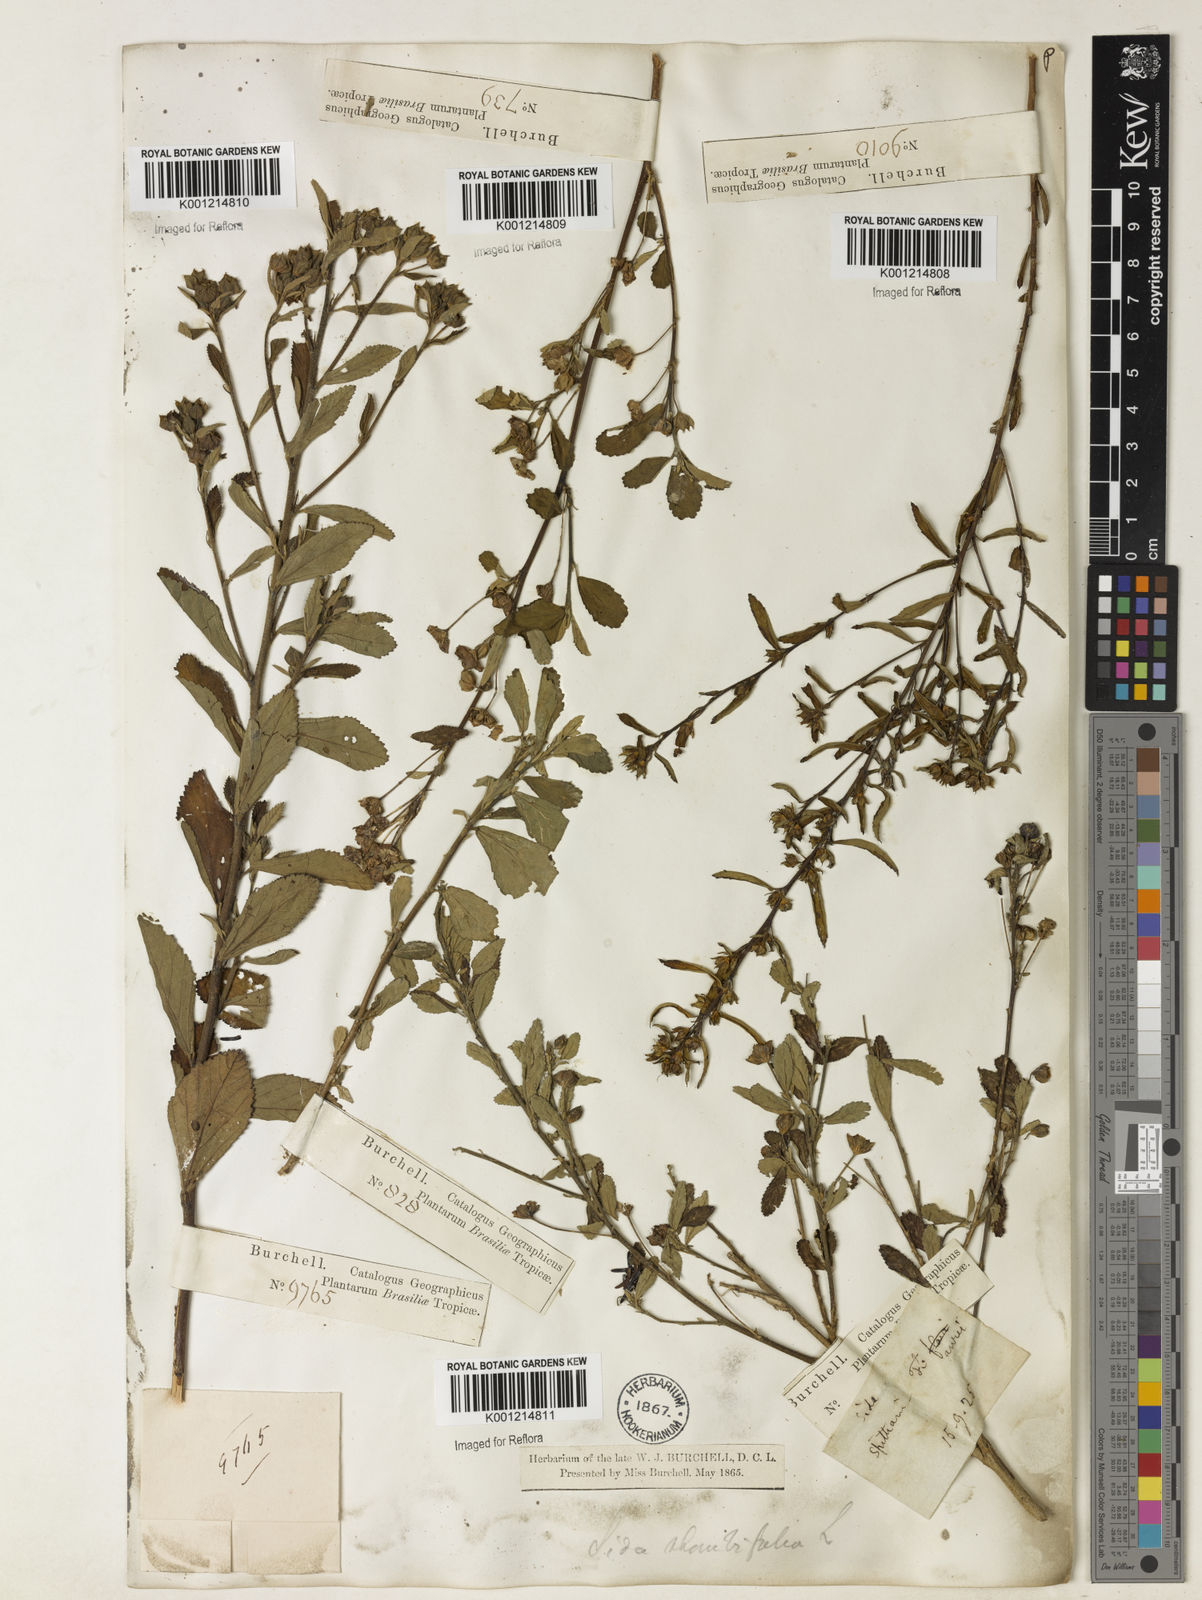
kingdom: Plantae
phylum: Tracheophyta
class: Magnoliopsida
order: Malvales
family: Malvaceae
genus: Sida
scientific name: Sida rhombifolia
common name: Queensland-hemp
